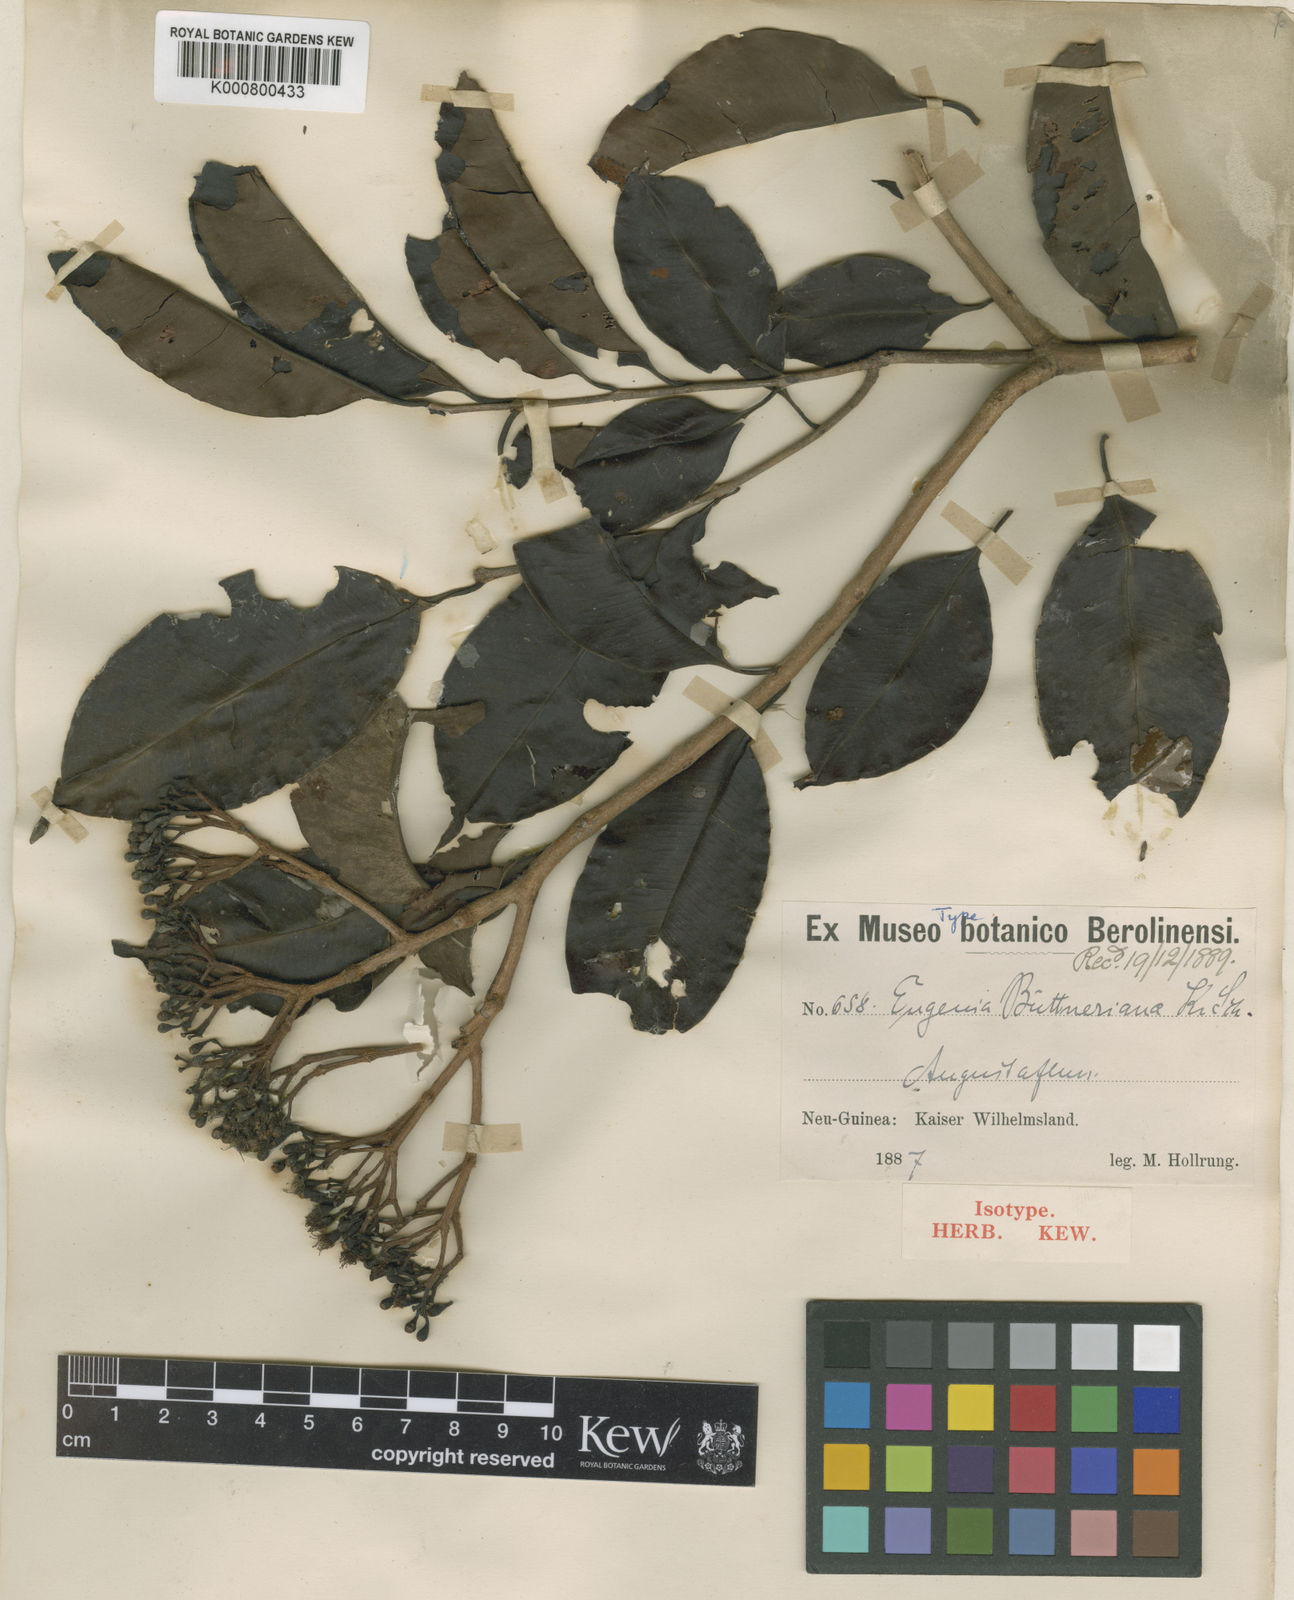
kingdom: Plantae
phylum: Tracheophyta
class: Magnoliopsida
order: Myrtales
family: Myrtaceae
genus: Syzygium
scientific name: Syzygium buettnerianum
